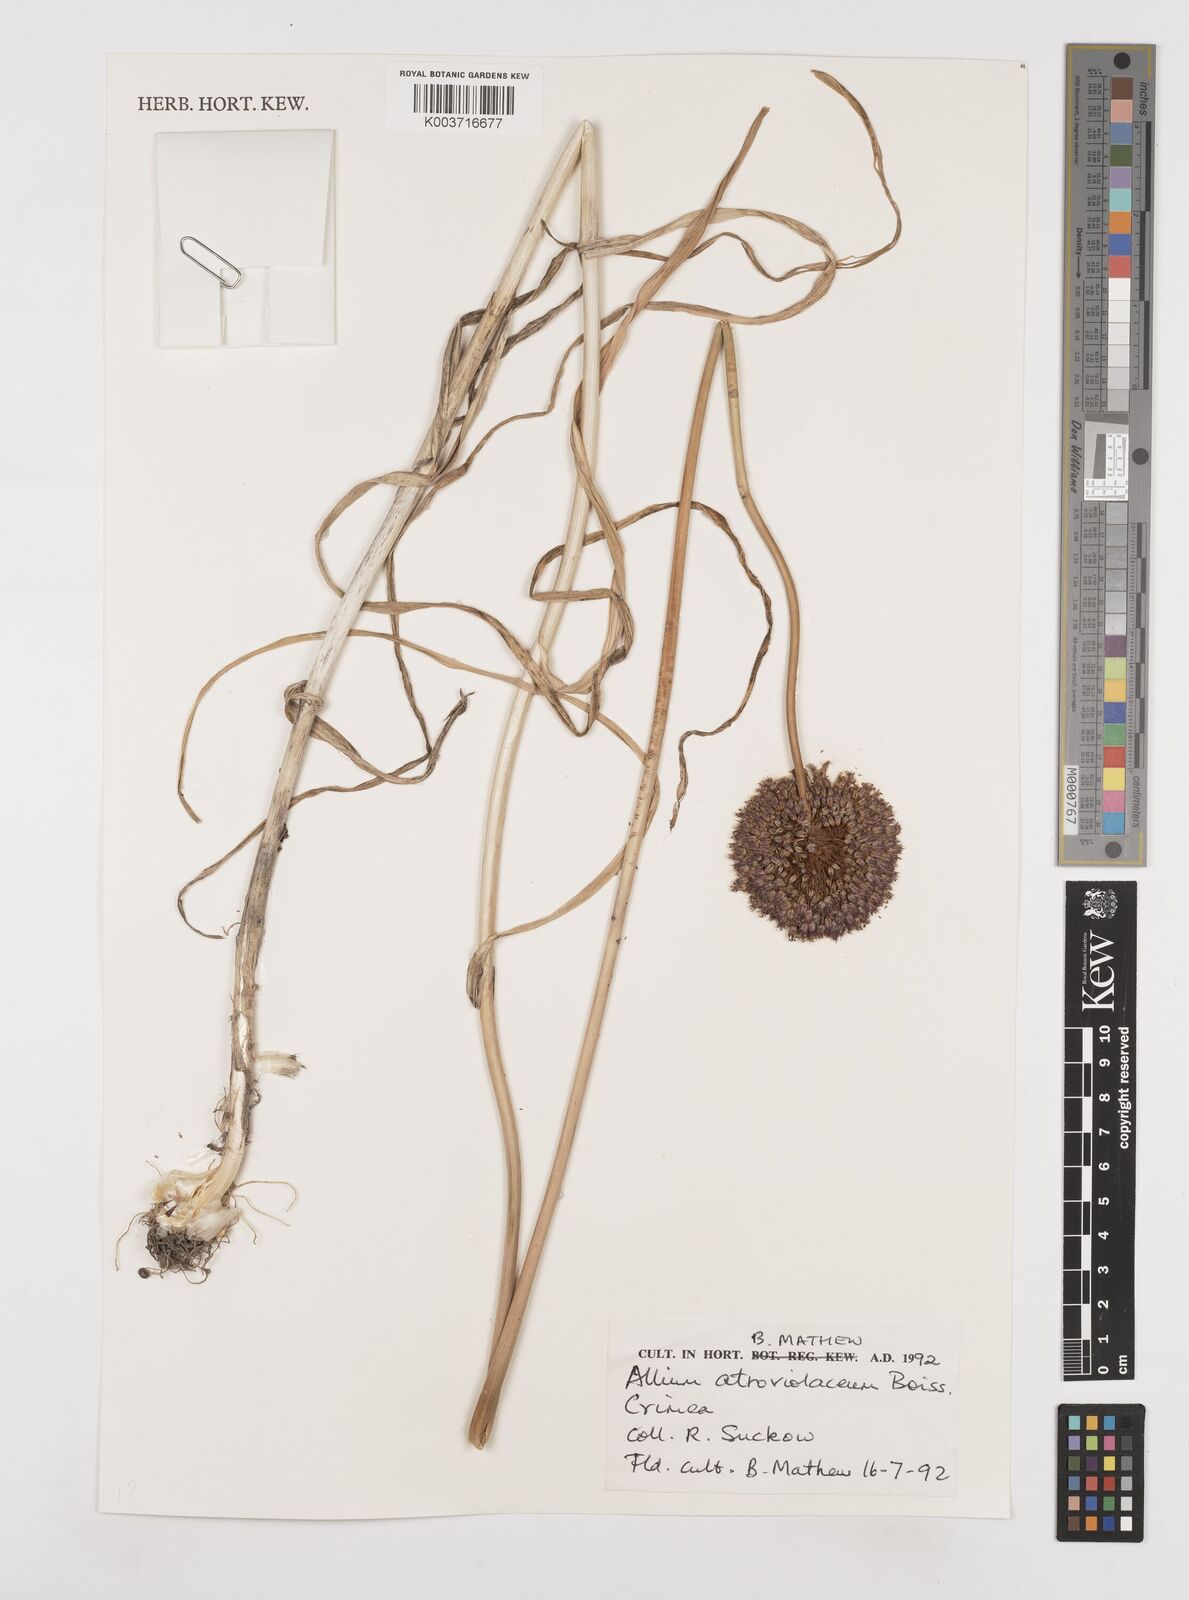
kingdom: Plantae
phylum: Tracheophyta
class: Liliopsida
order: Asparagales
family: Amaryllidaceae
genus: Allium
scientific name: Allium sphaerocephalon
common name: Round-headed leek
